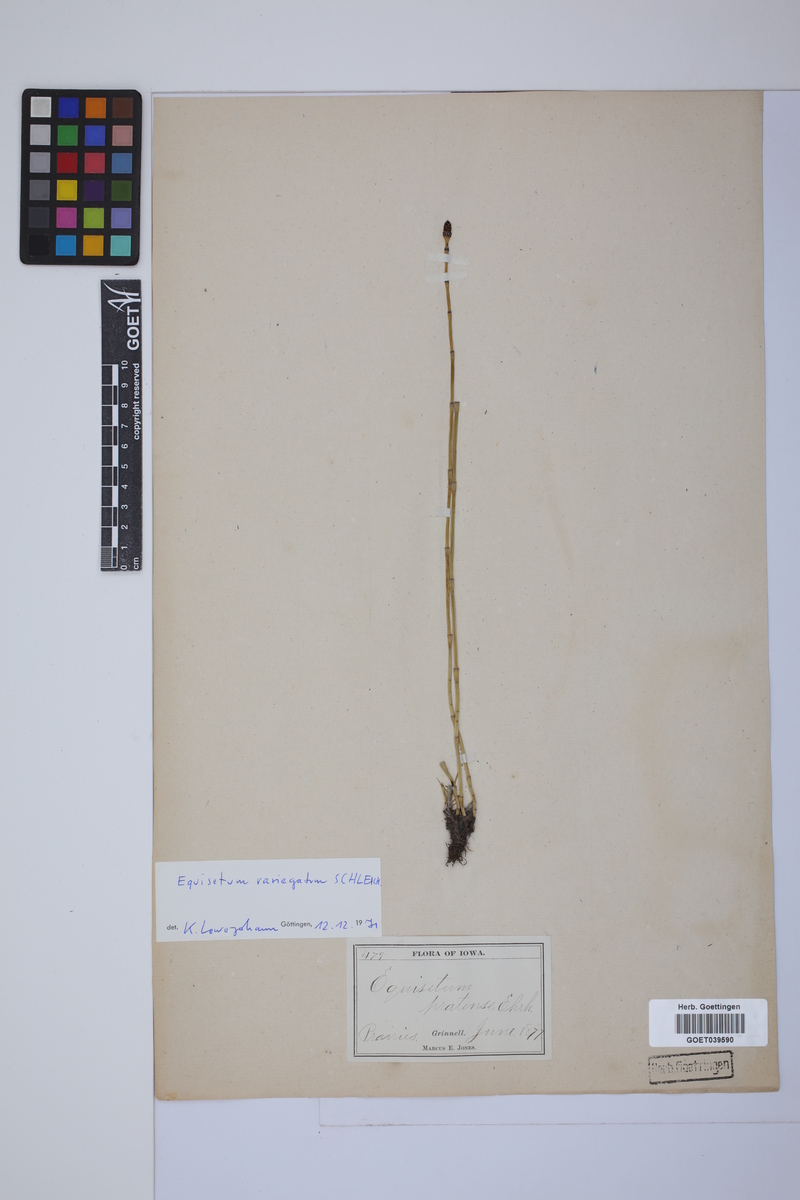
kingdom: Plantae
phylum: Tracheophyta
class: Polypodiopsida
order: Equisetales
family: Equisetaceae
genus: Equisetum
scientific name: Equisetum variegatum
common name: Variegated horsetail
